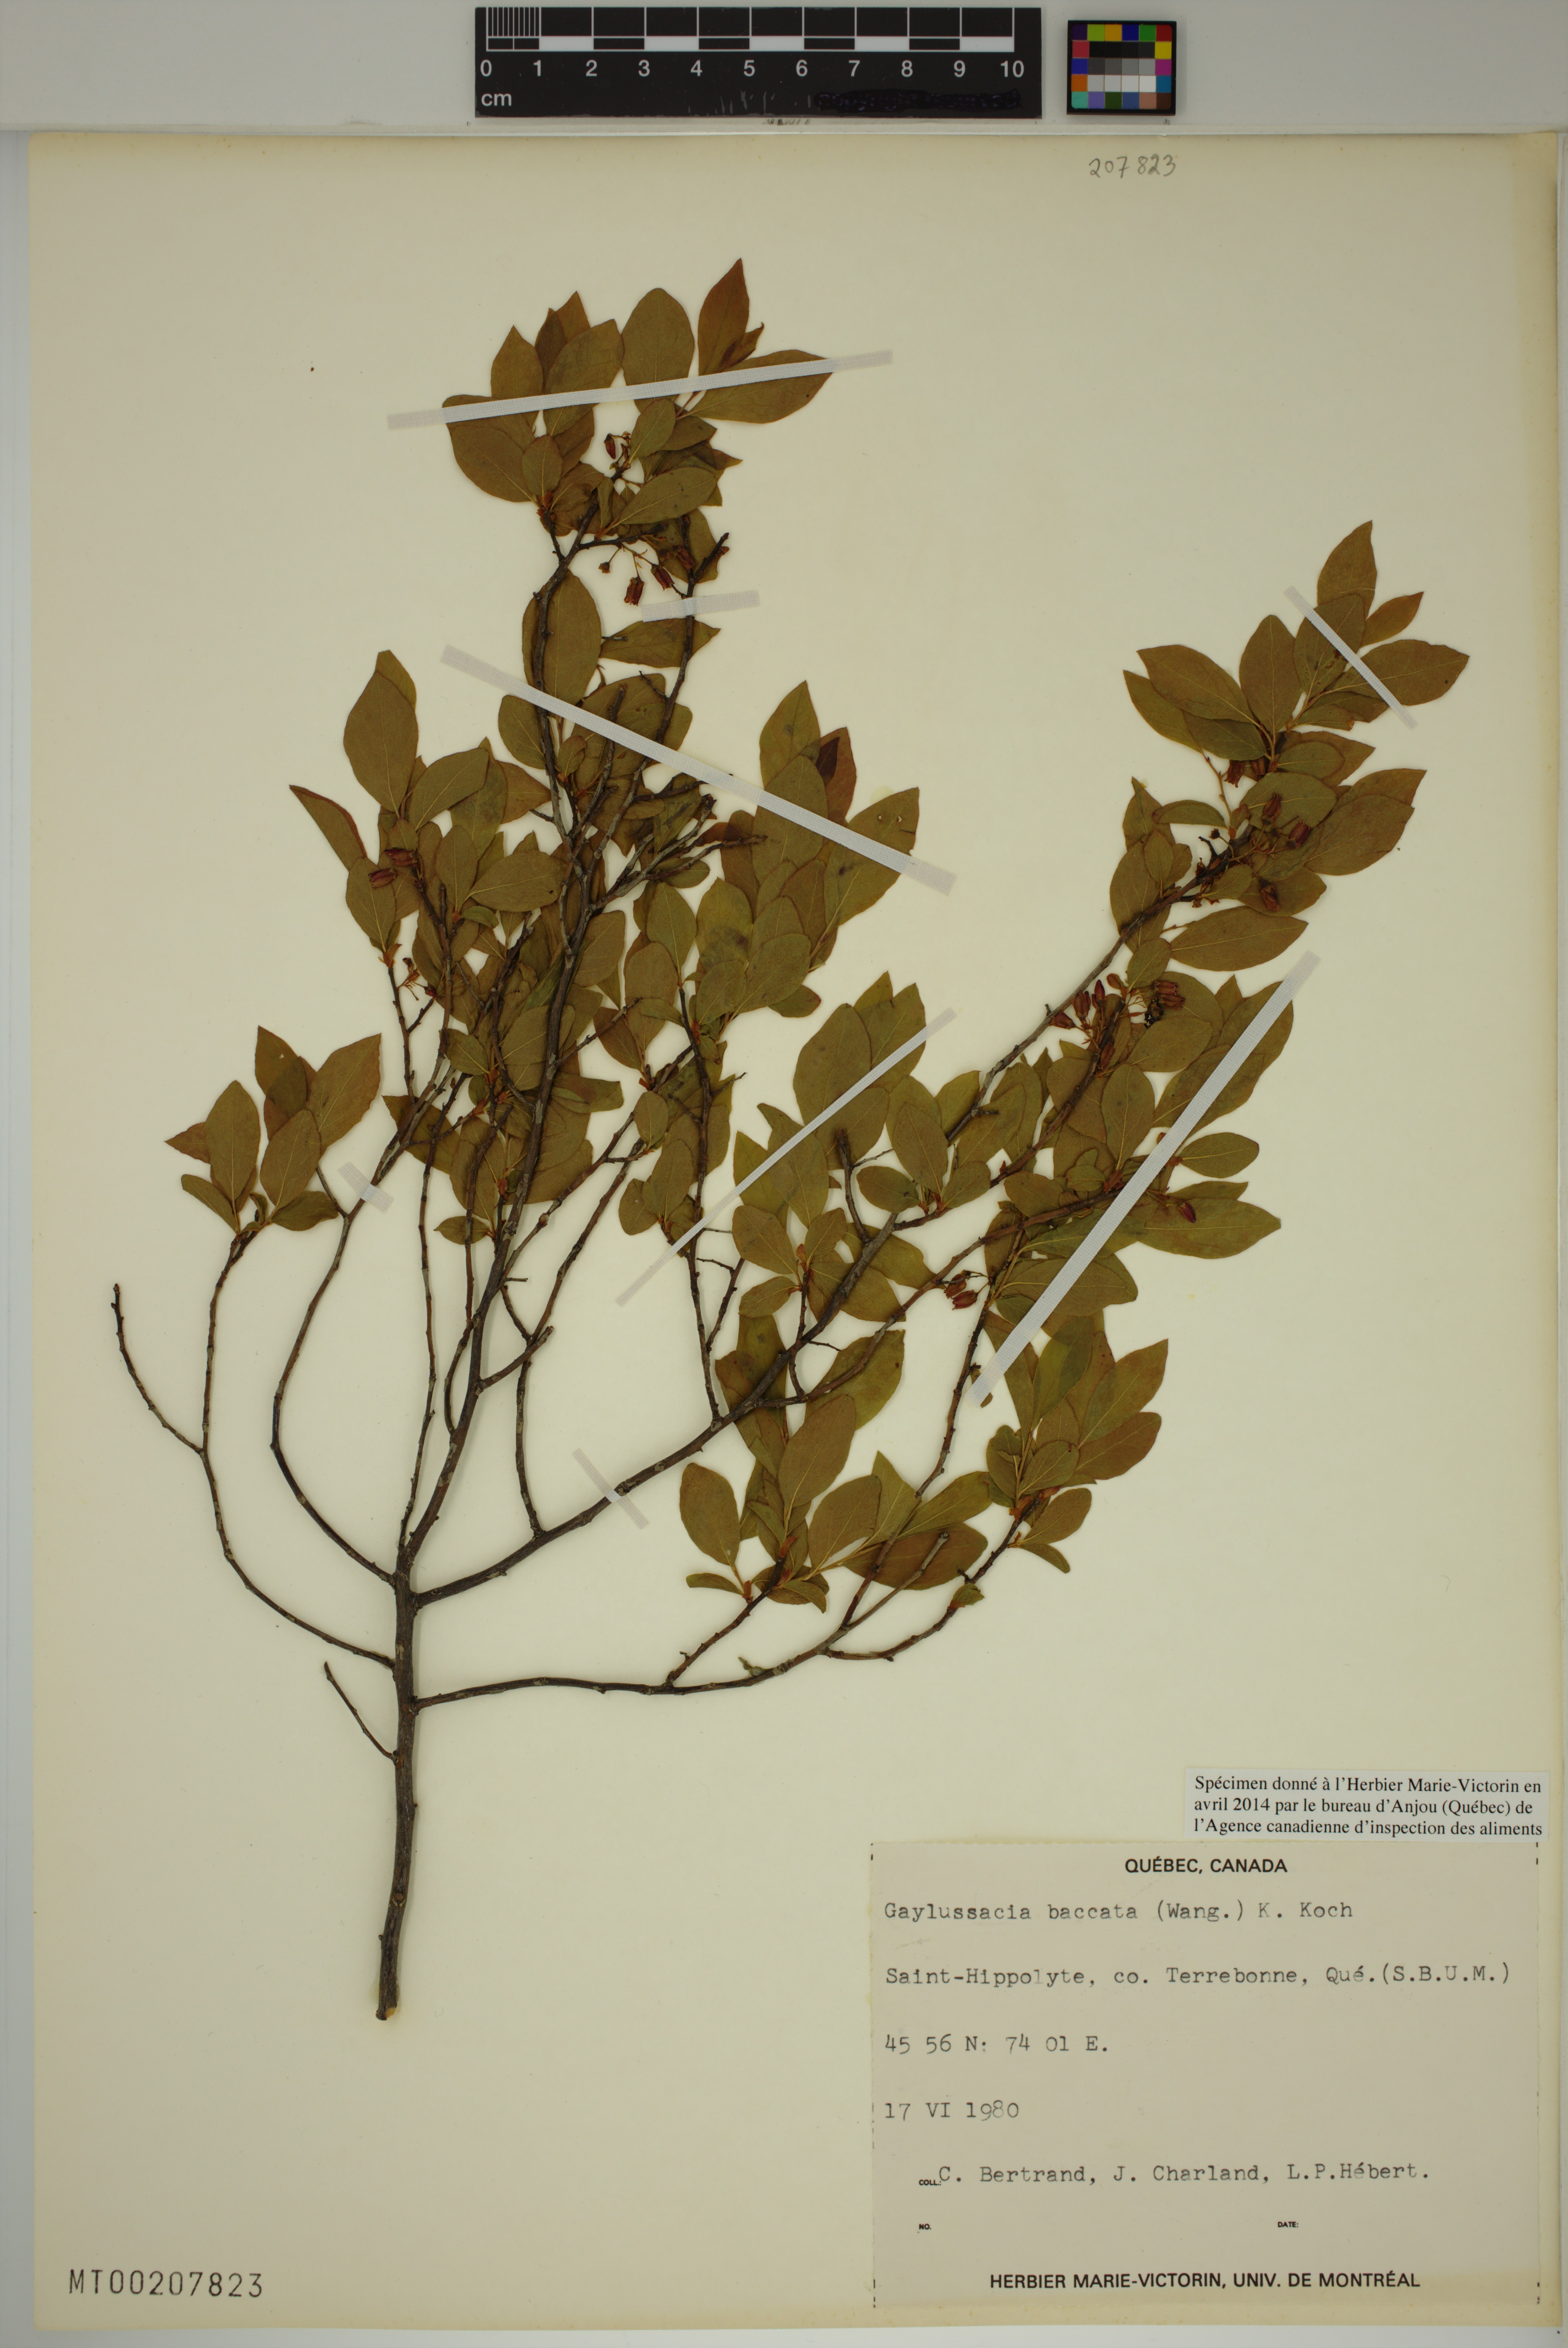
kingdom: Plantae
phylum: Tracheophyta
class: Magnoliopsida
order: Ericales
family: Ericaceae
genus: Gaylussacia
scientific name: Gaylussacia baccata
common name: Black huckleberry
